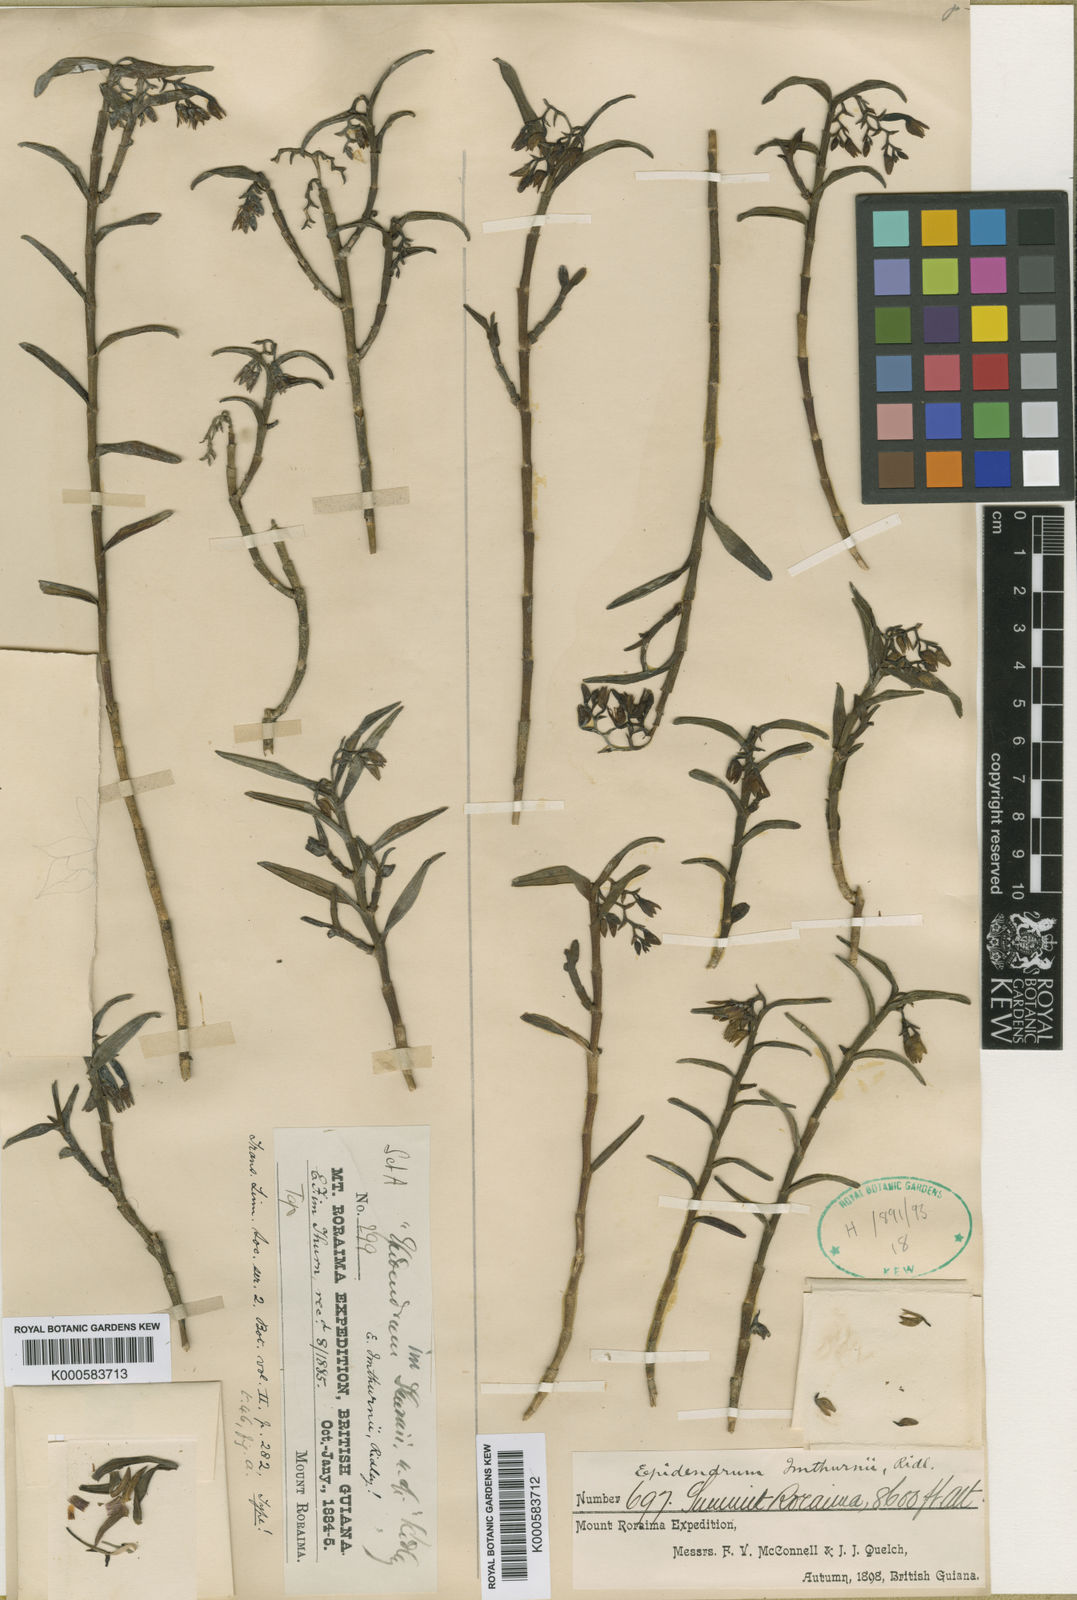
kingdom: Plantae
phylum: Tracheophyta
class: Liliopsida
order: Asparagales
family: Orchidaceae
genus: Epidendrum
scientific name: Epidendrum
